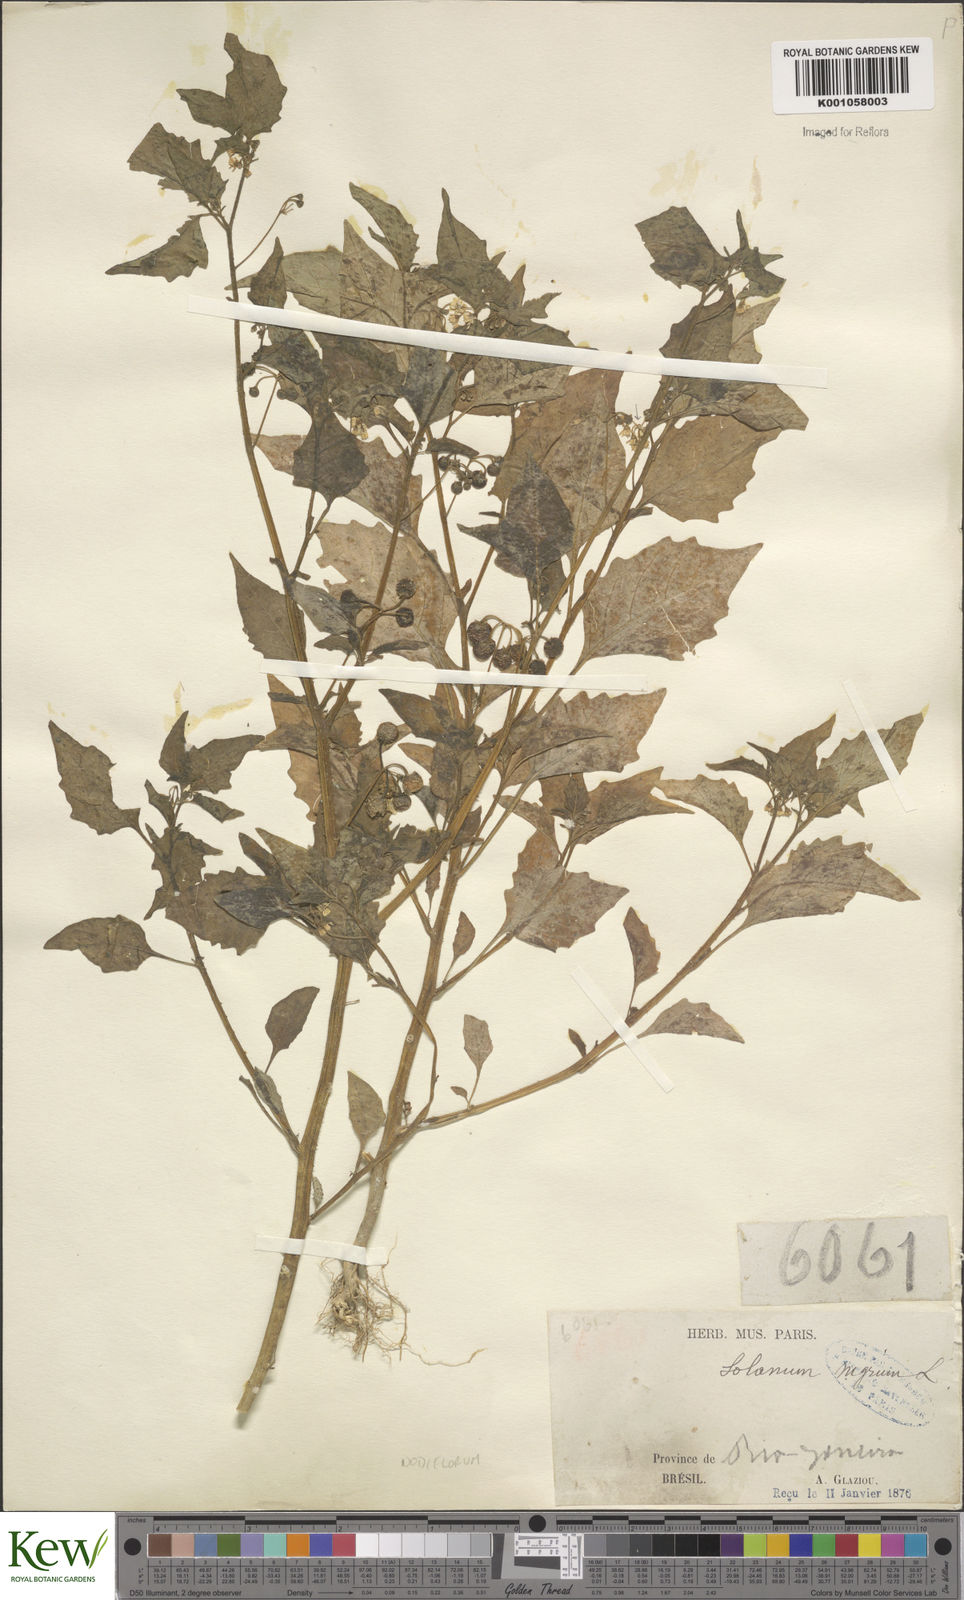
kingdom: Plantae
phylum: Tracheophyta
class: Magnoliopsida
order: Solanales
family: Solanaceae
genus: Solanum
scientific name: Solanum americanum
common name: American black nightshade
